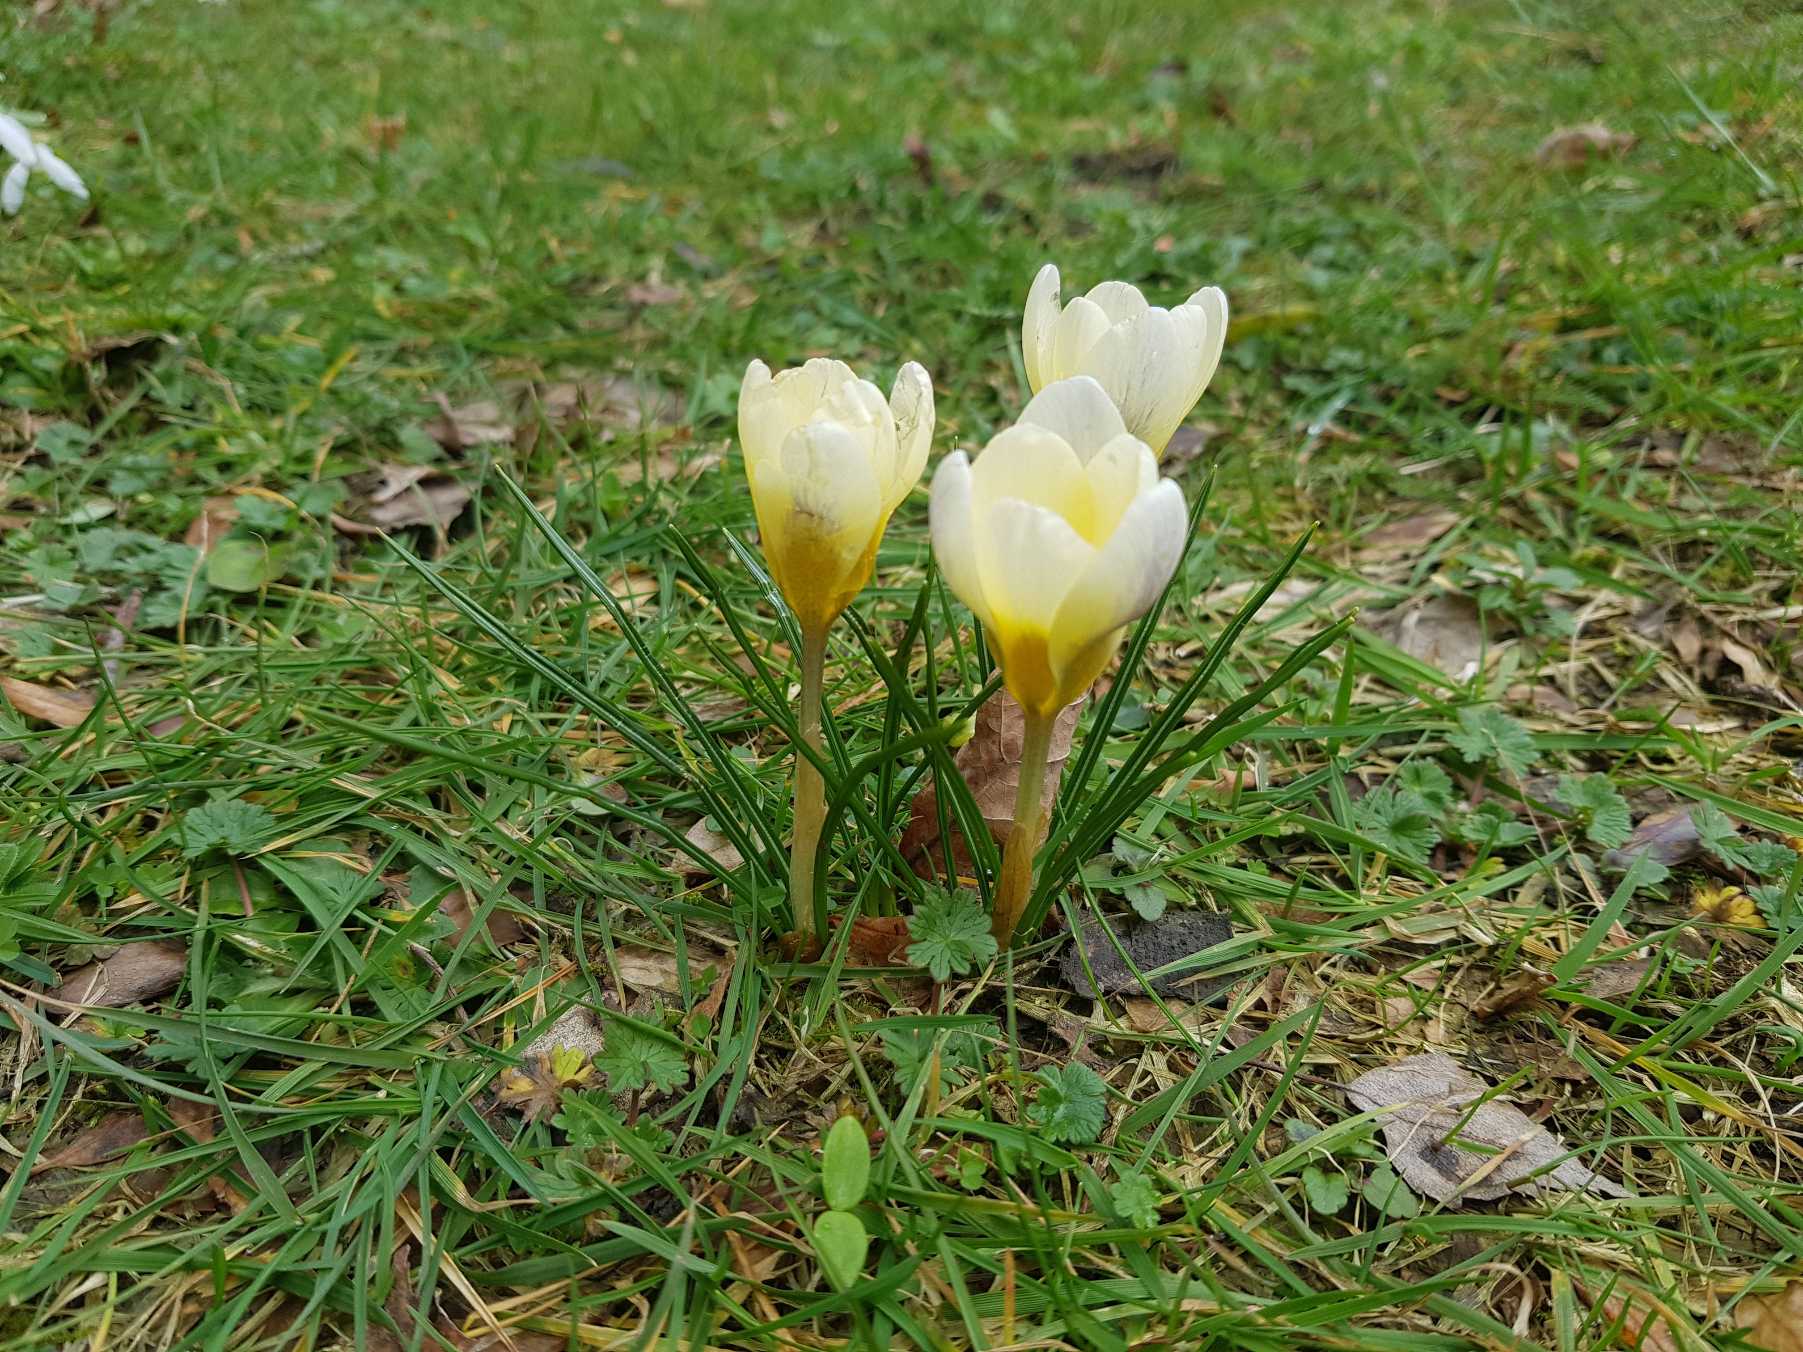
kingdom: Plantae
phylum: Tracheophyta
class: Liliopsida
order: Asparagales
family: Iridaceae
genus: Crocus
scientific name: Crocus chrysanthus
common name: Skede-krokus
